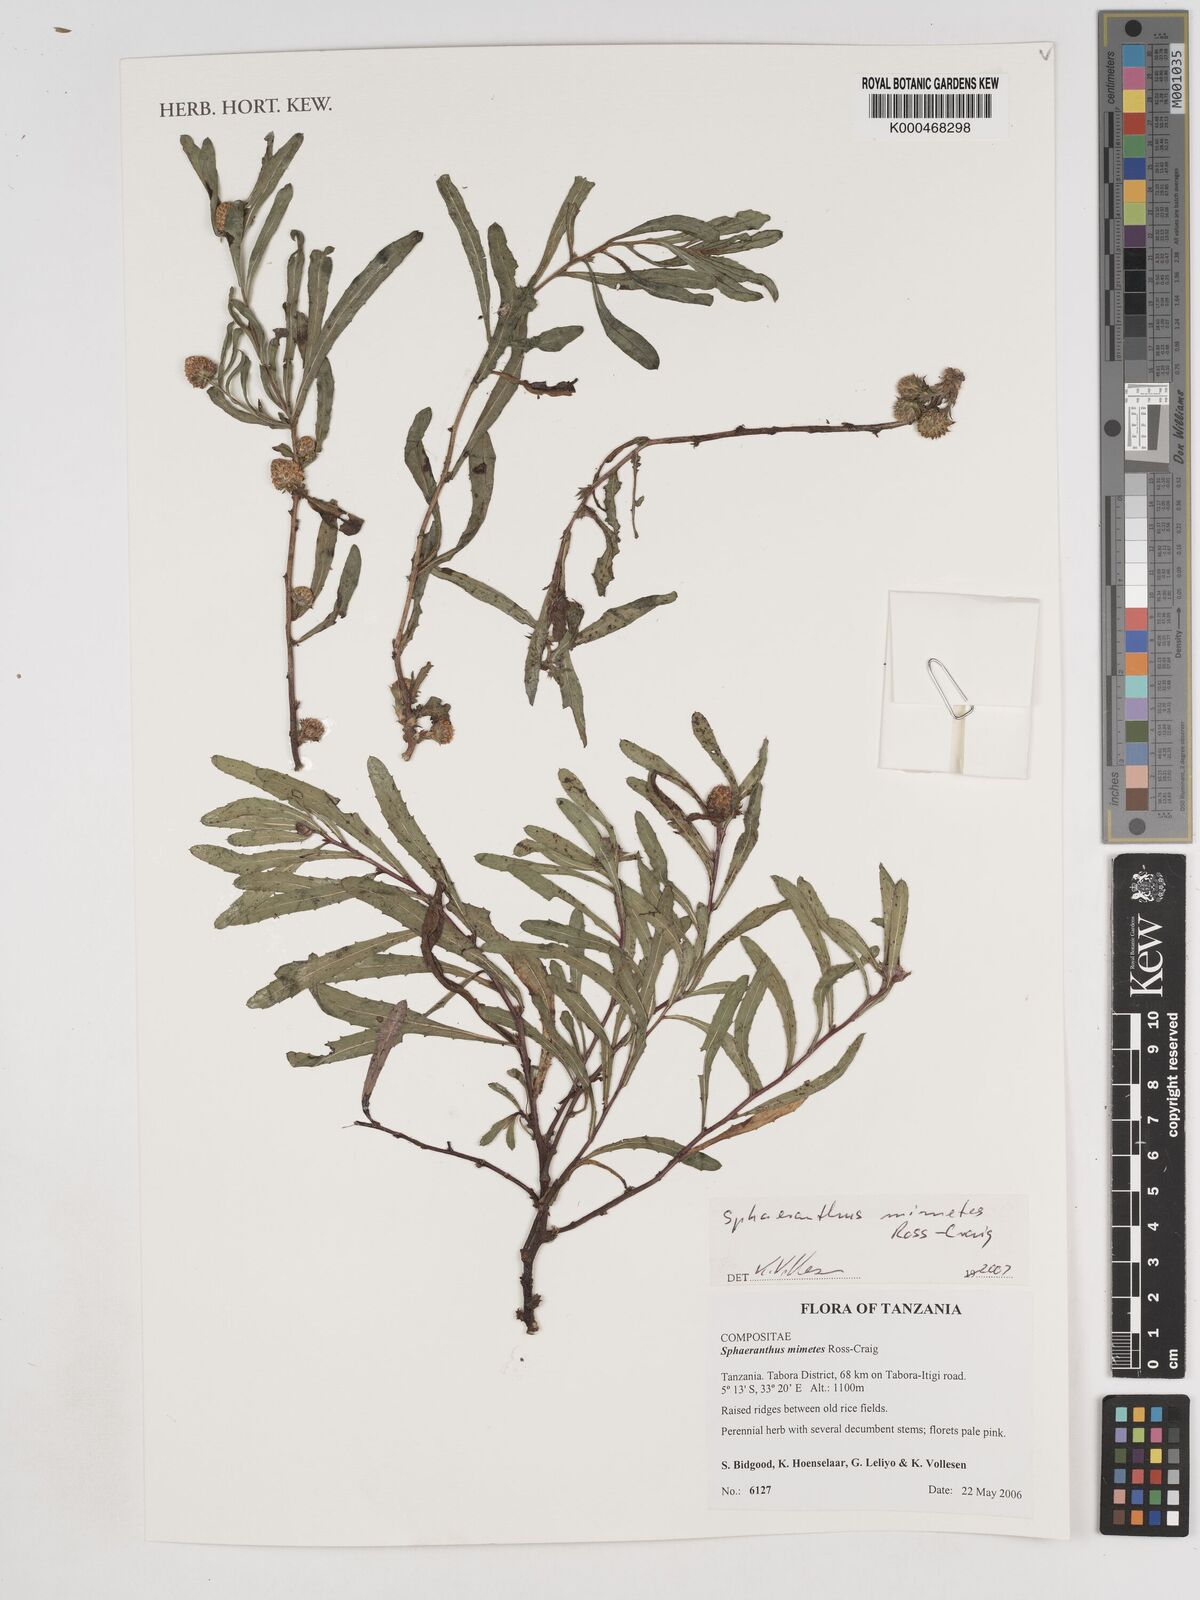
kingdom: Plantae
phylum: Tracheophyta
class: Magnoliopsida
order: Asterales
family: Asteraceae
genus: Sphaeranthus
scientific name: Sphaeranthus mimetes
